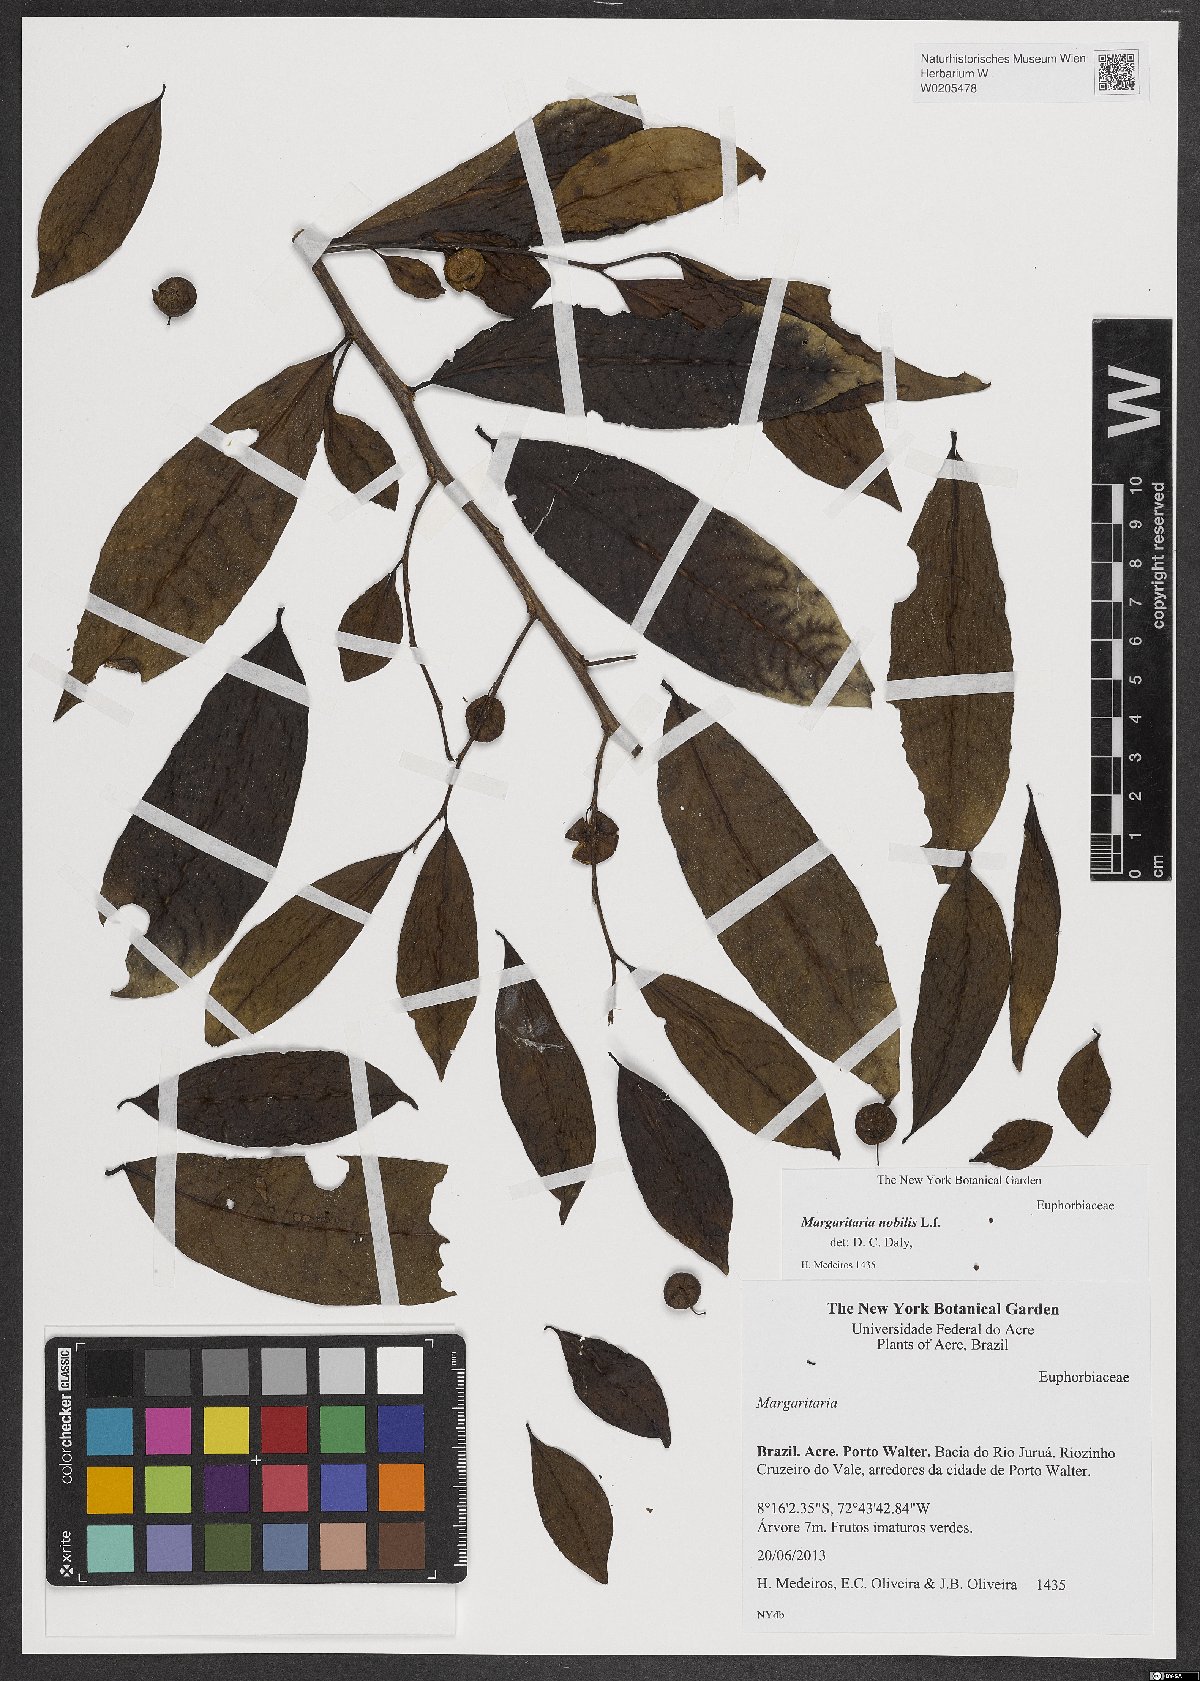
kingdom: Plantae
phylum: Tracheophyta
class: Magnoliopsida
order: Malpighiales
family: Phyllanthaceae
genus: Margaritaria
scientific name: Margaritaria nobilis
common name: Goose berry
